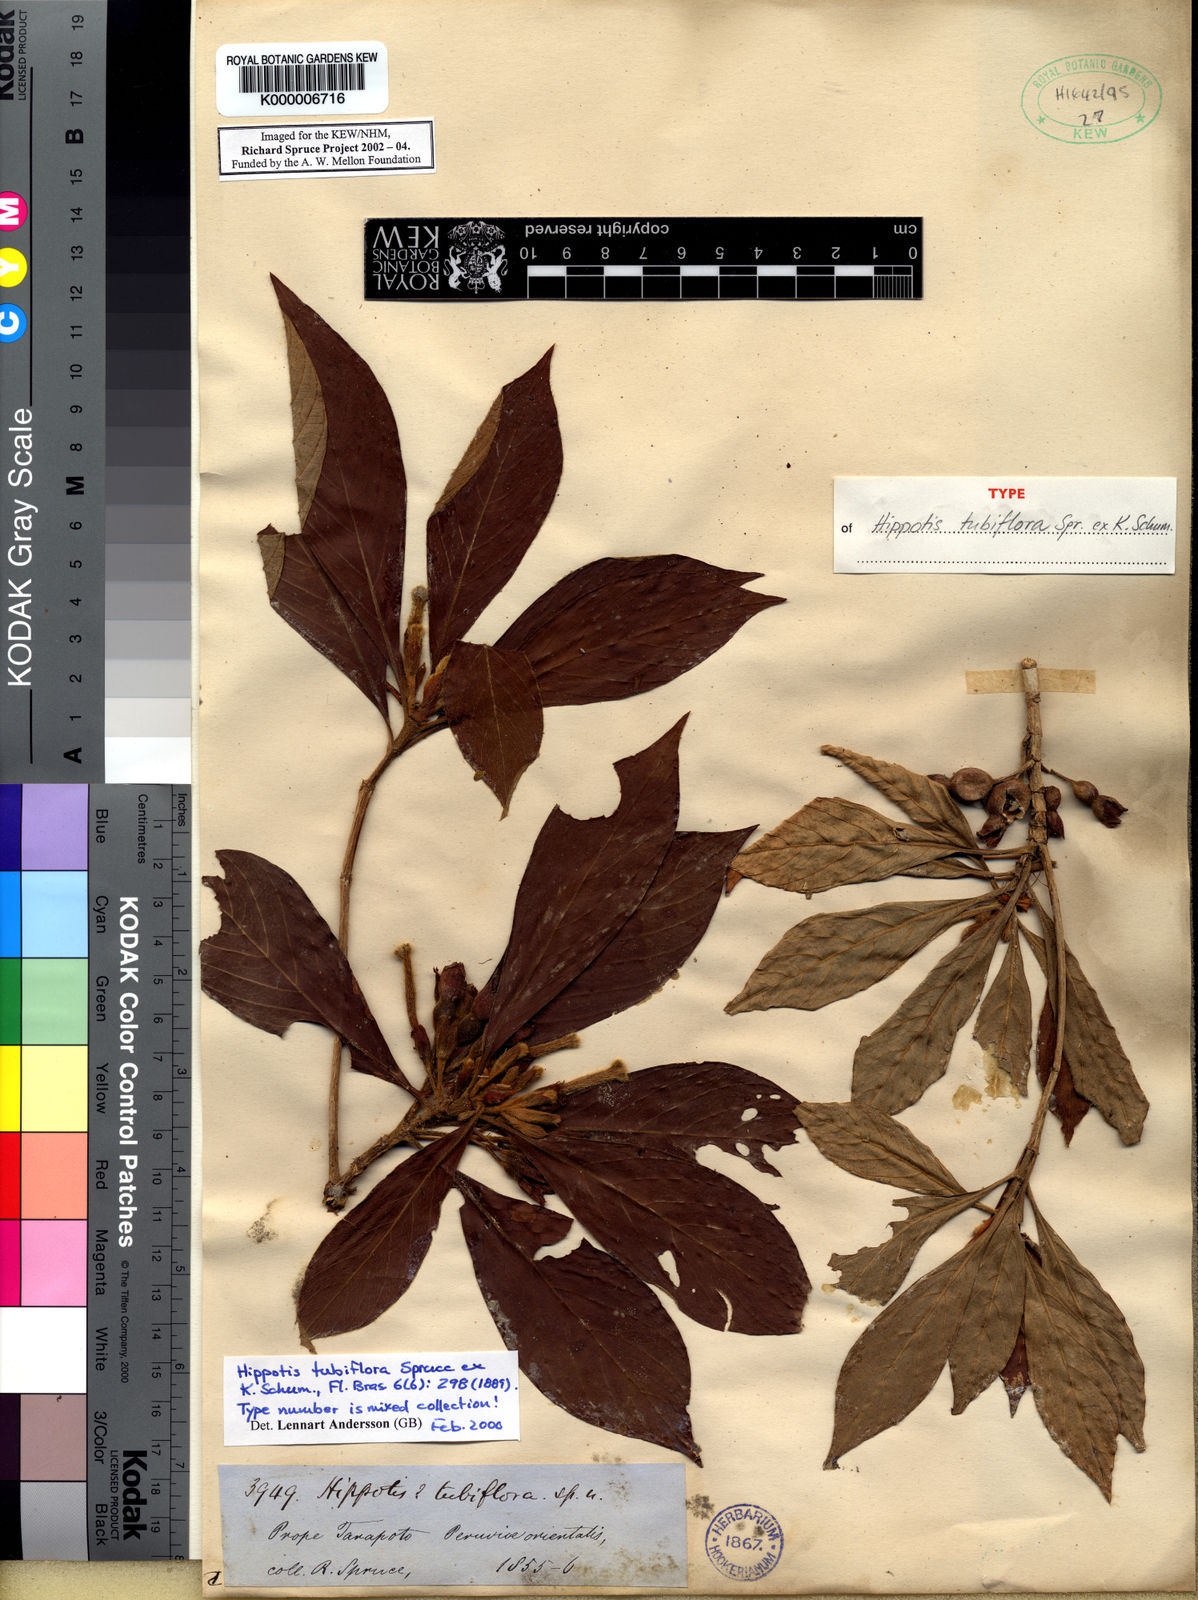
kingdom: Plantae
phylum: Tracheophyta
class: Magnoliopsida
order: Gentianales
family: Rubiaceae
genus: Hippotis
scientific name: Hippotis tubiflora
